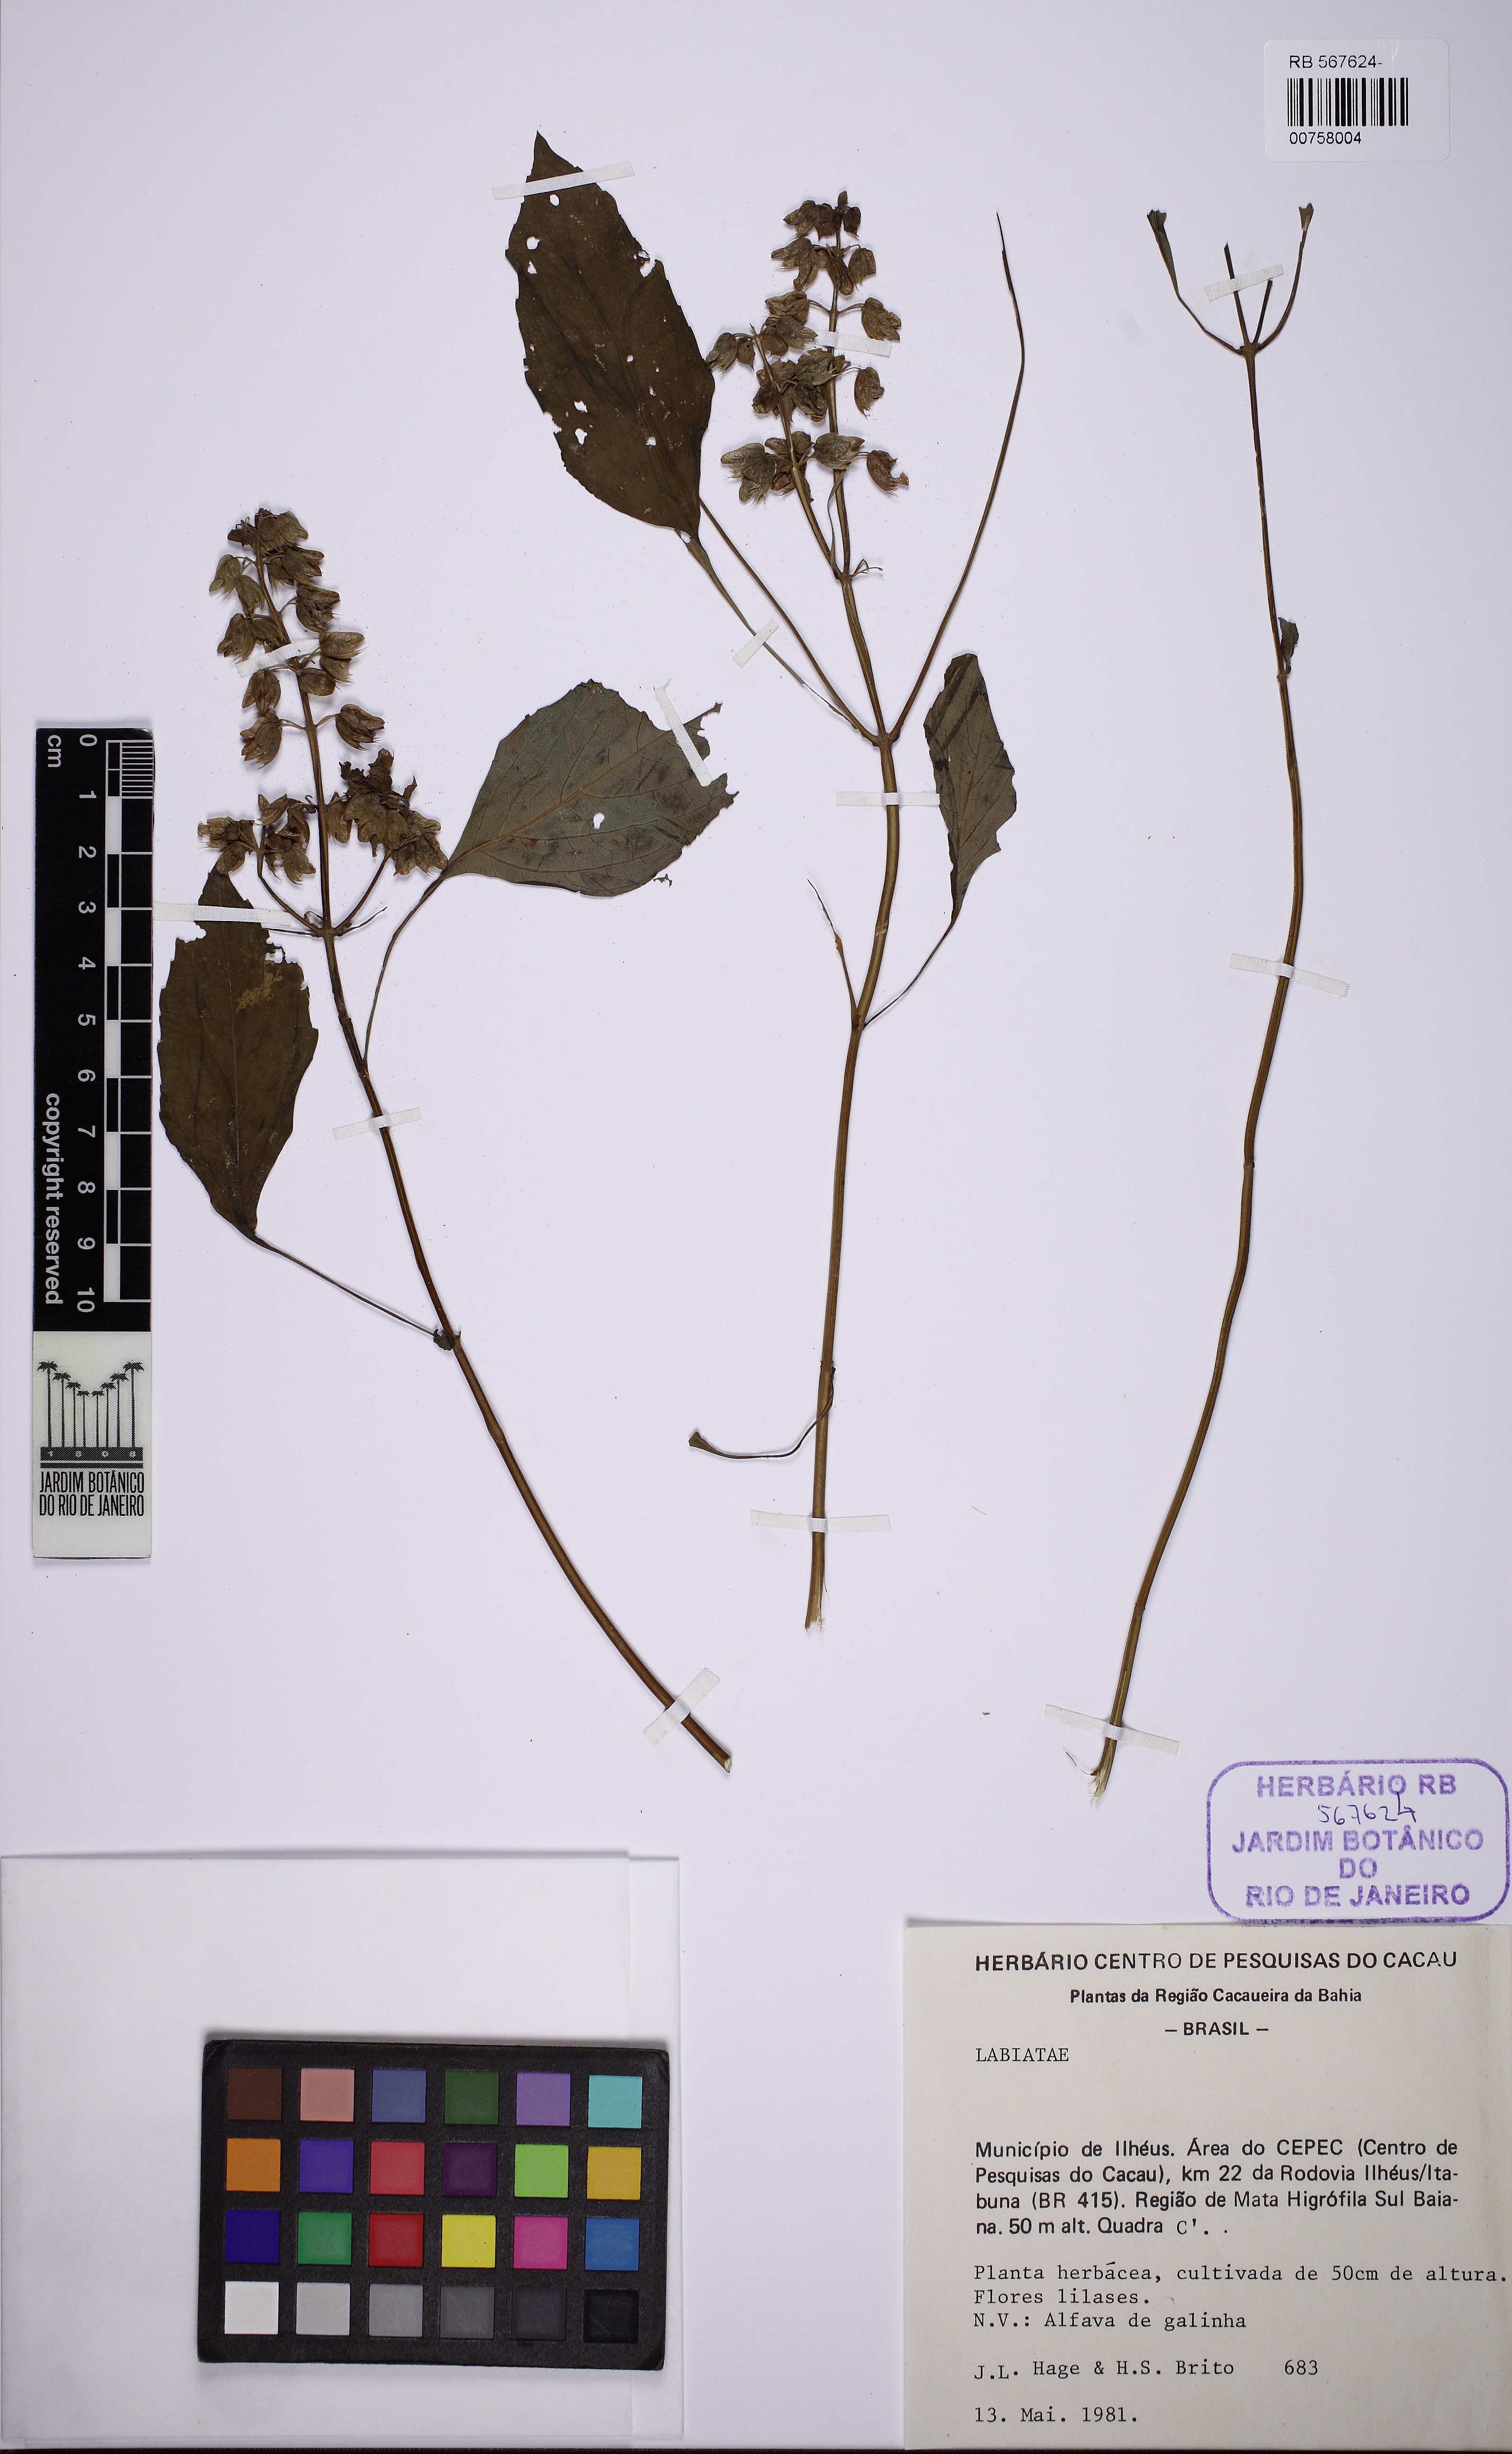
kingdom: Plantae
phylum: Tracheophyta
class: Magnoliopsida
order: Lamiales
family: Lamiaceae
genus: Ocimum
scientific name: Ocimum campechianum
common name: Mosquito basil
